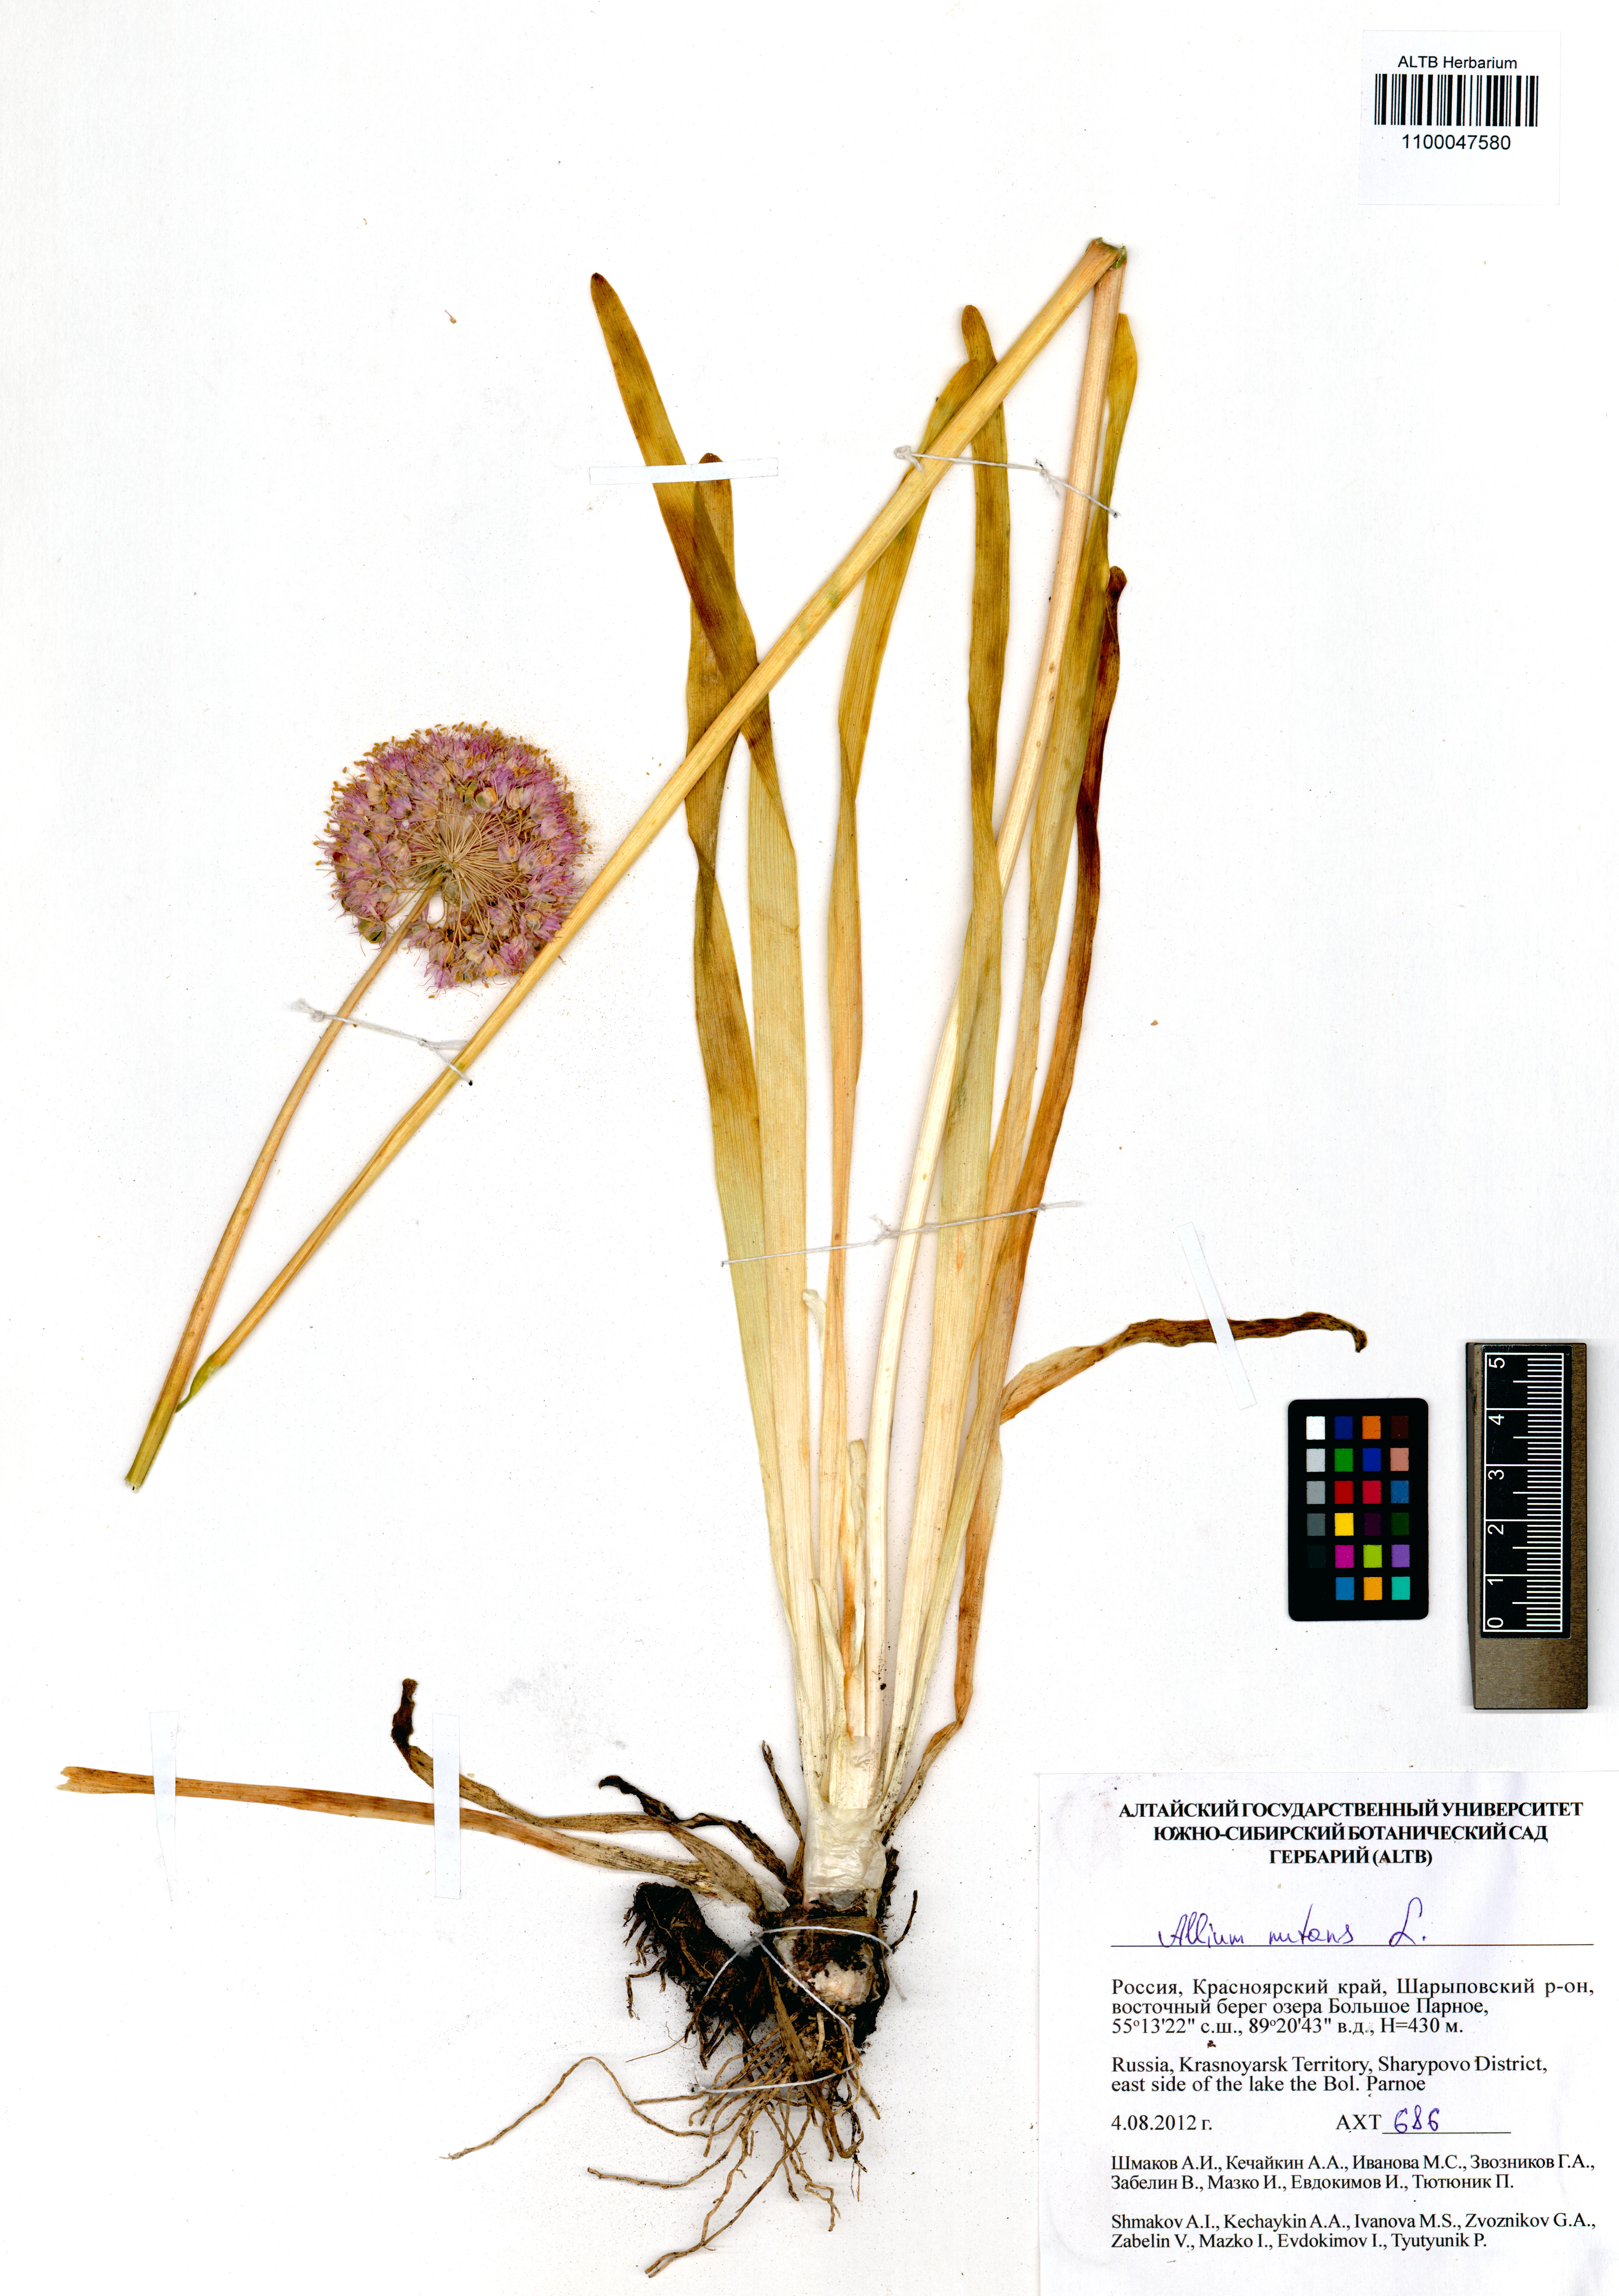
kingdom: Plantae
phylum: Tracheophyta
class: Liliopsida
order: Asparagales
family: Amaryllidaceae
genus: Allium
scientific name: Allium nutans
